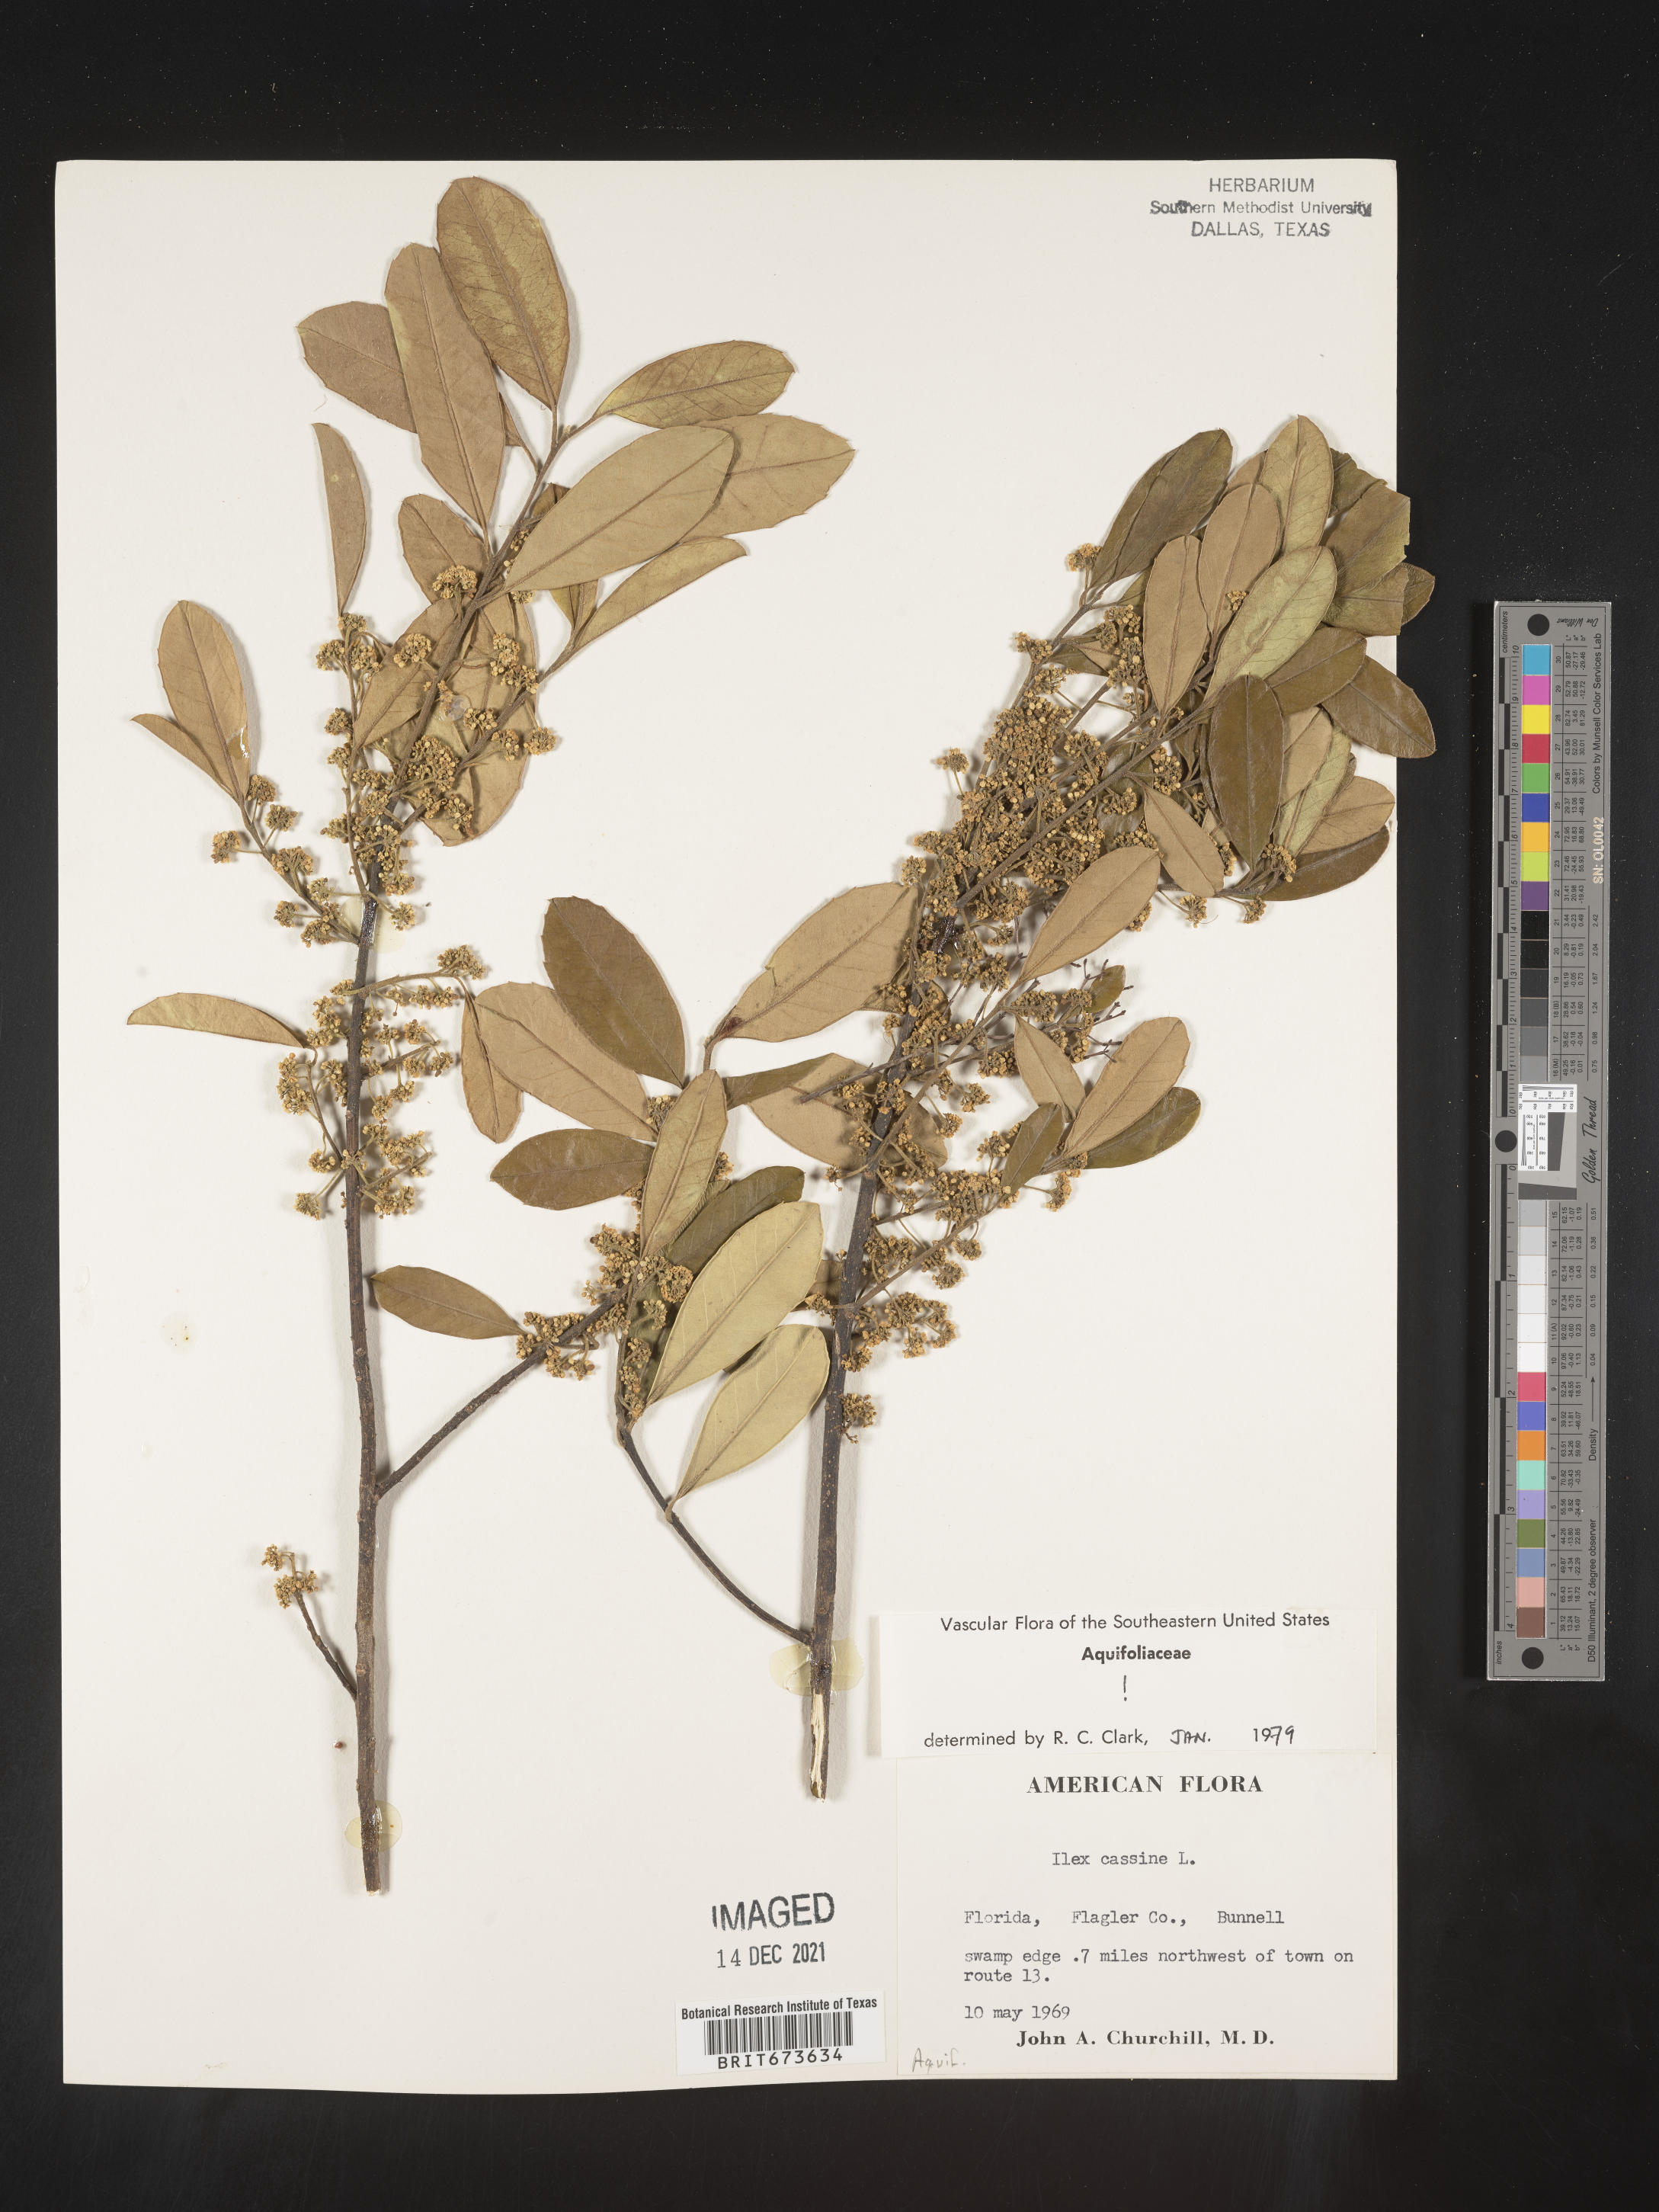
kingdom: Plantae
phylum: Tracheophyta
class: Magnoliopsida
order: Aquifoliales
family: Aquifoliaceae
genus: Ilex
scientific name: Ilex cassine
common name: Dahoon
